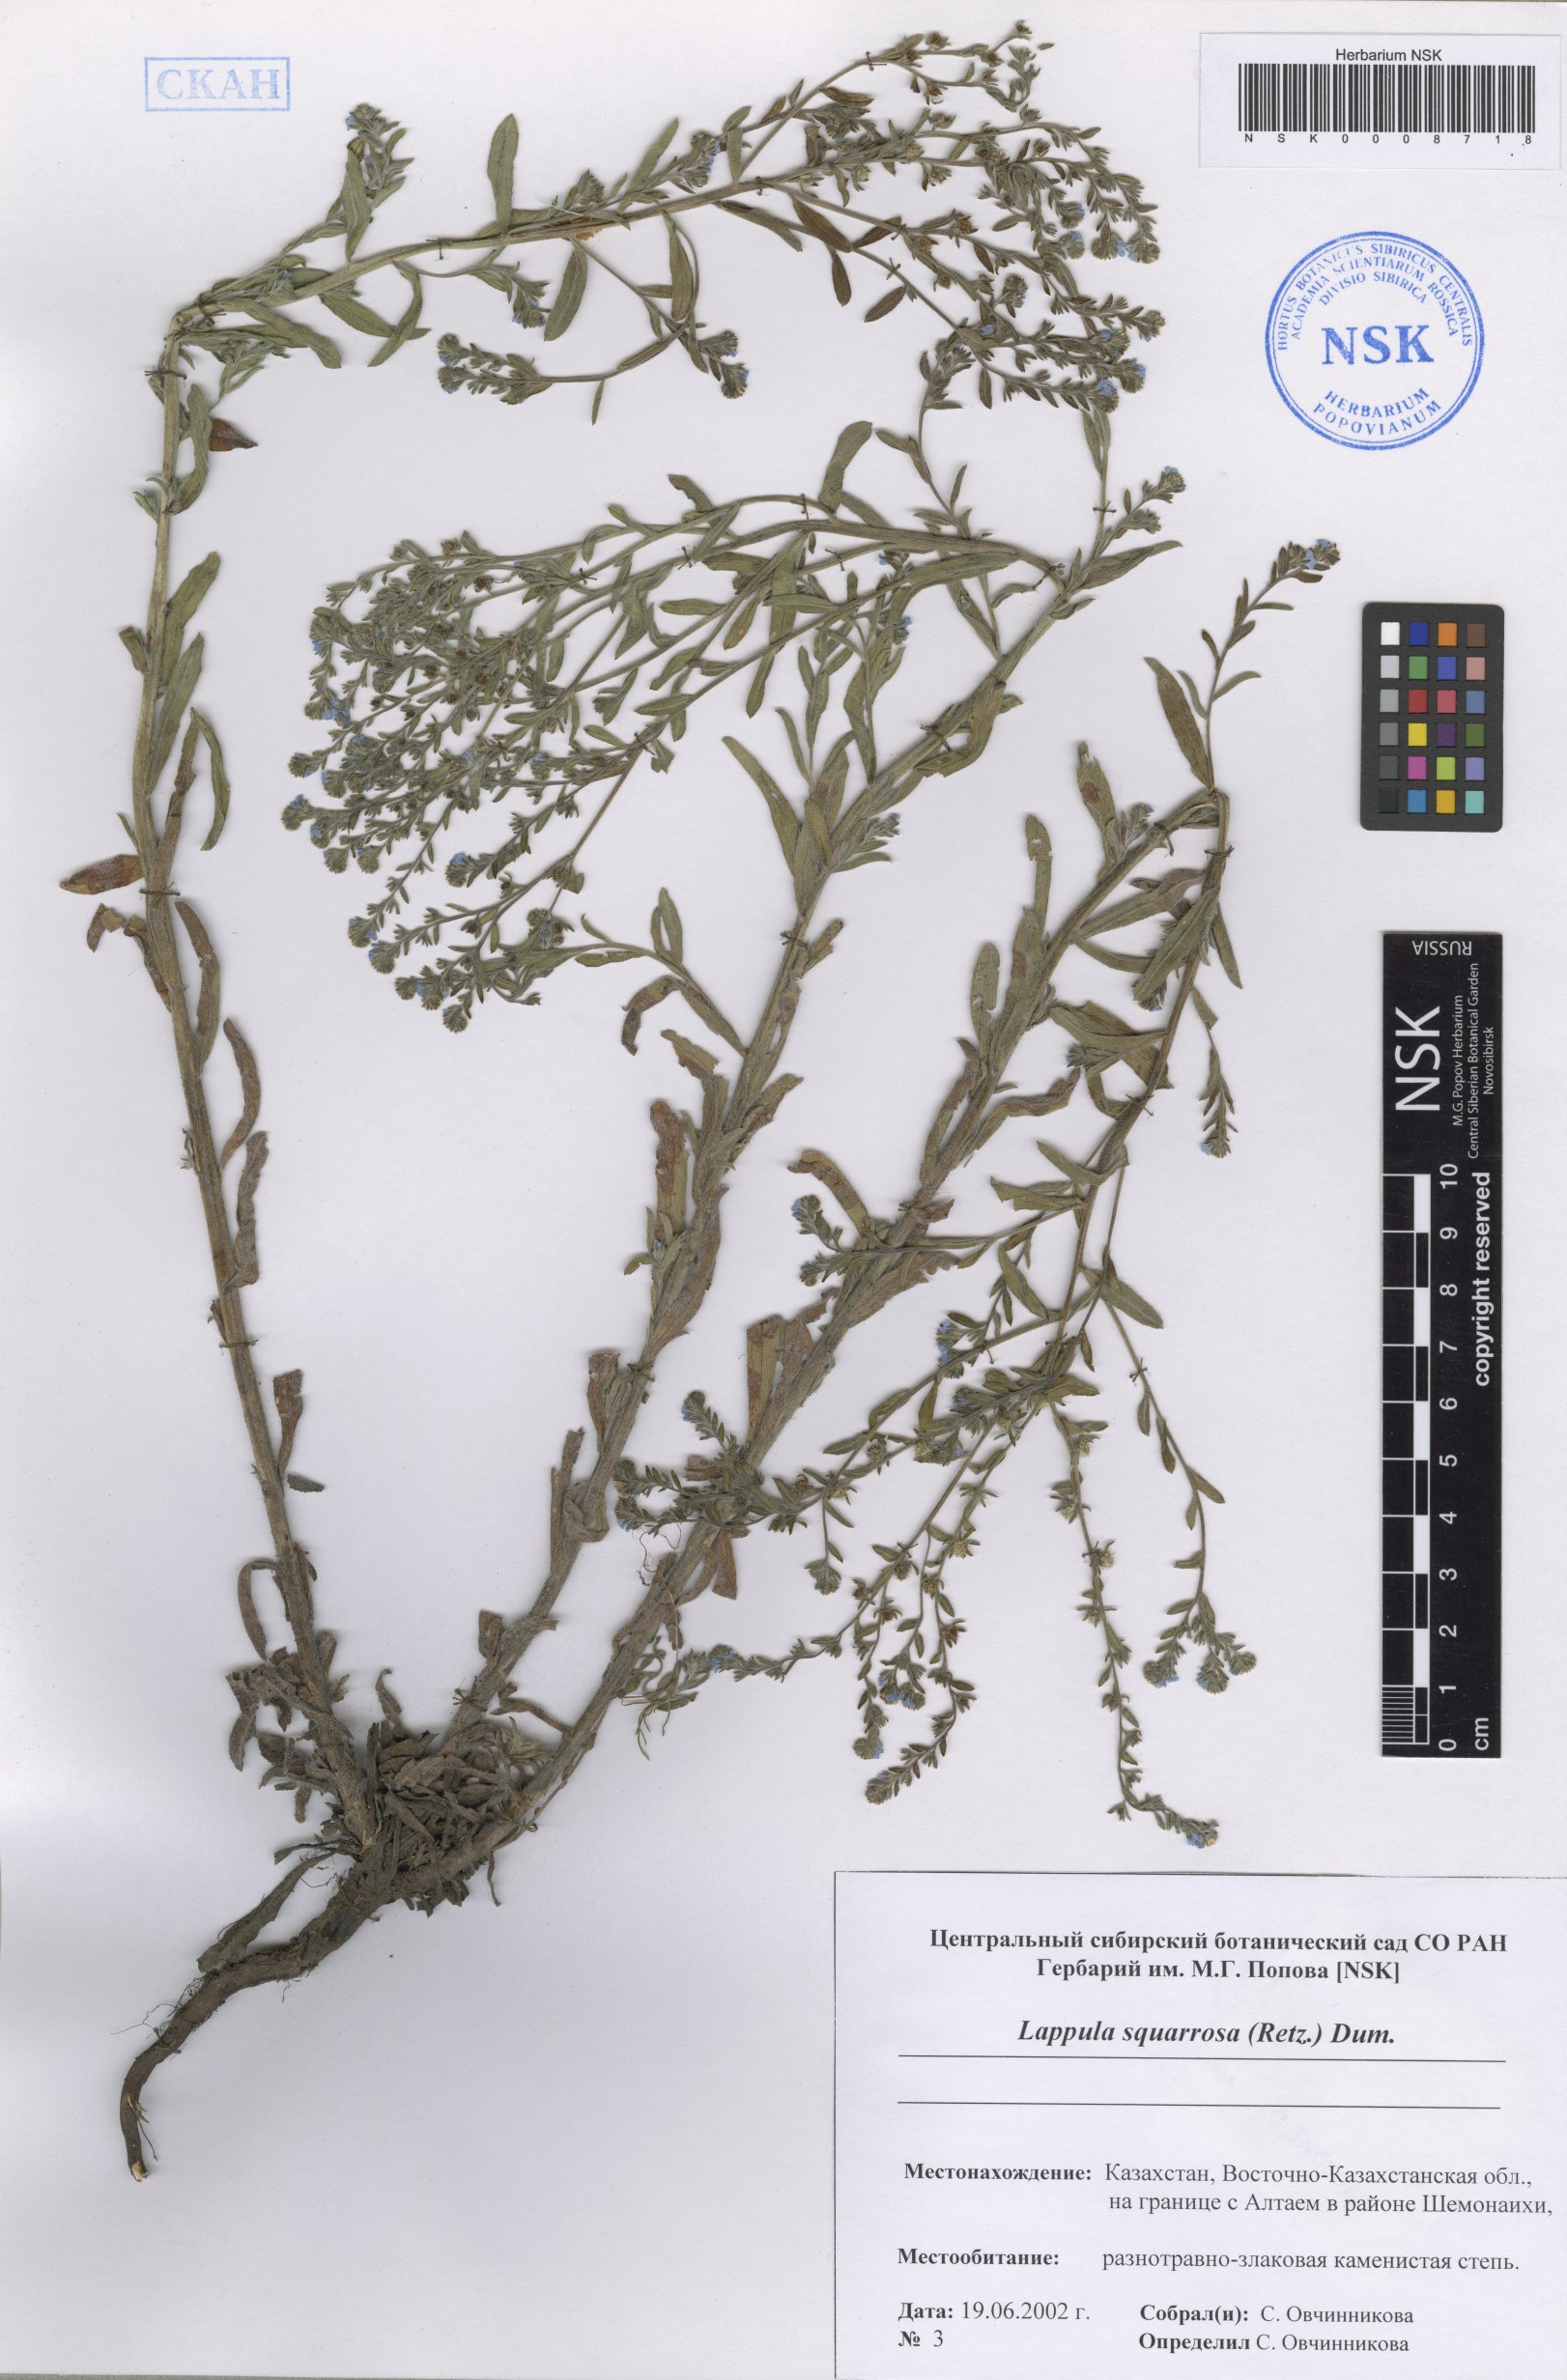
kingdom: Plantae
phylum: Tracheophyta
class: Magnoliopsida
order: Boraginales
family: Boraginaceae
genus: Lappula
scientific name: Lappula squarrosa
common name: European stickseed
